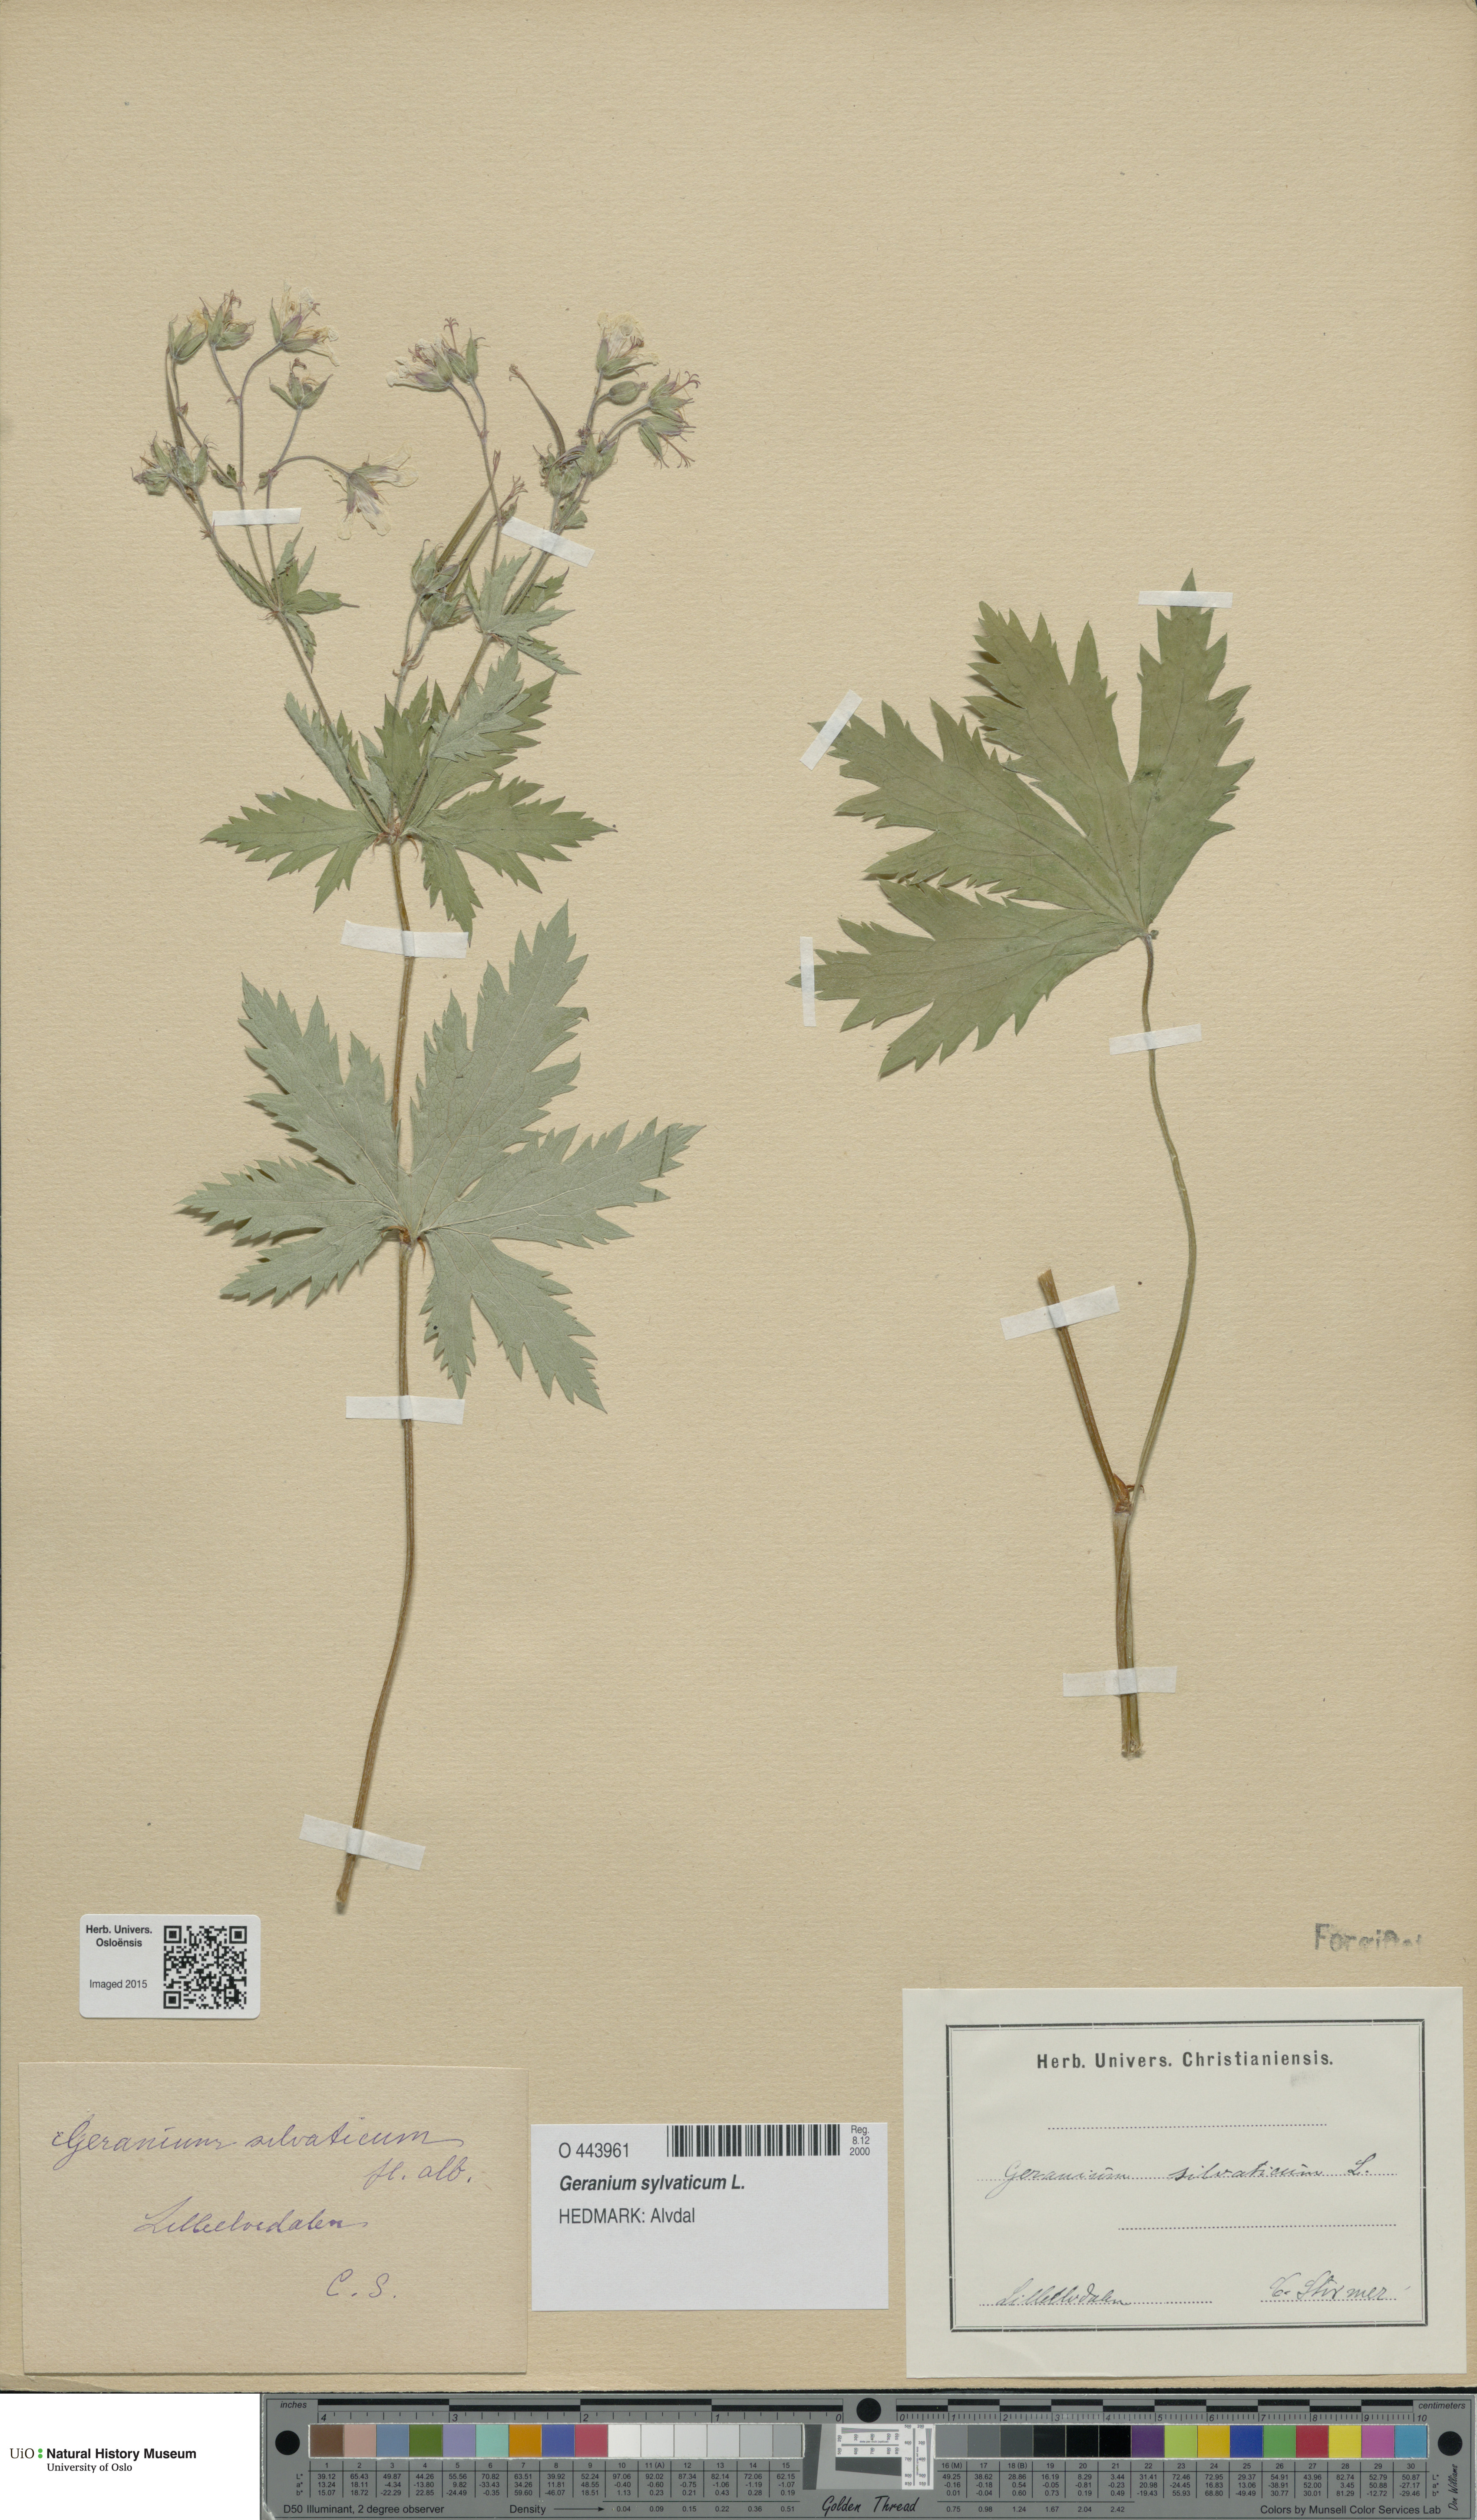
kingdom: Plantae
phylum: Tracheophyta
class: Magnoliopsida
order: Geraniales
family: Geraniaceae
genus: Geranium
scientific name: Geranium sylvaticum
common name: Wood crane's-bill
